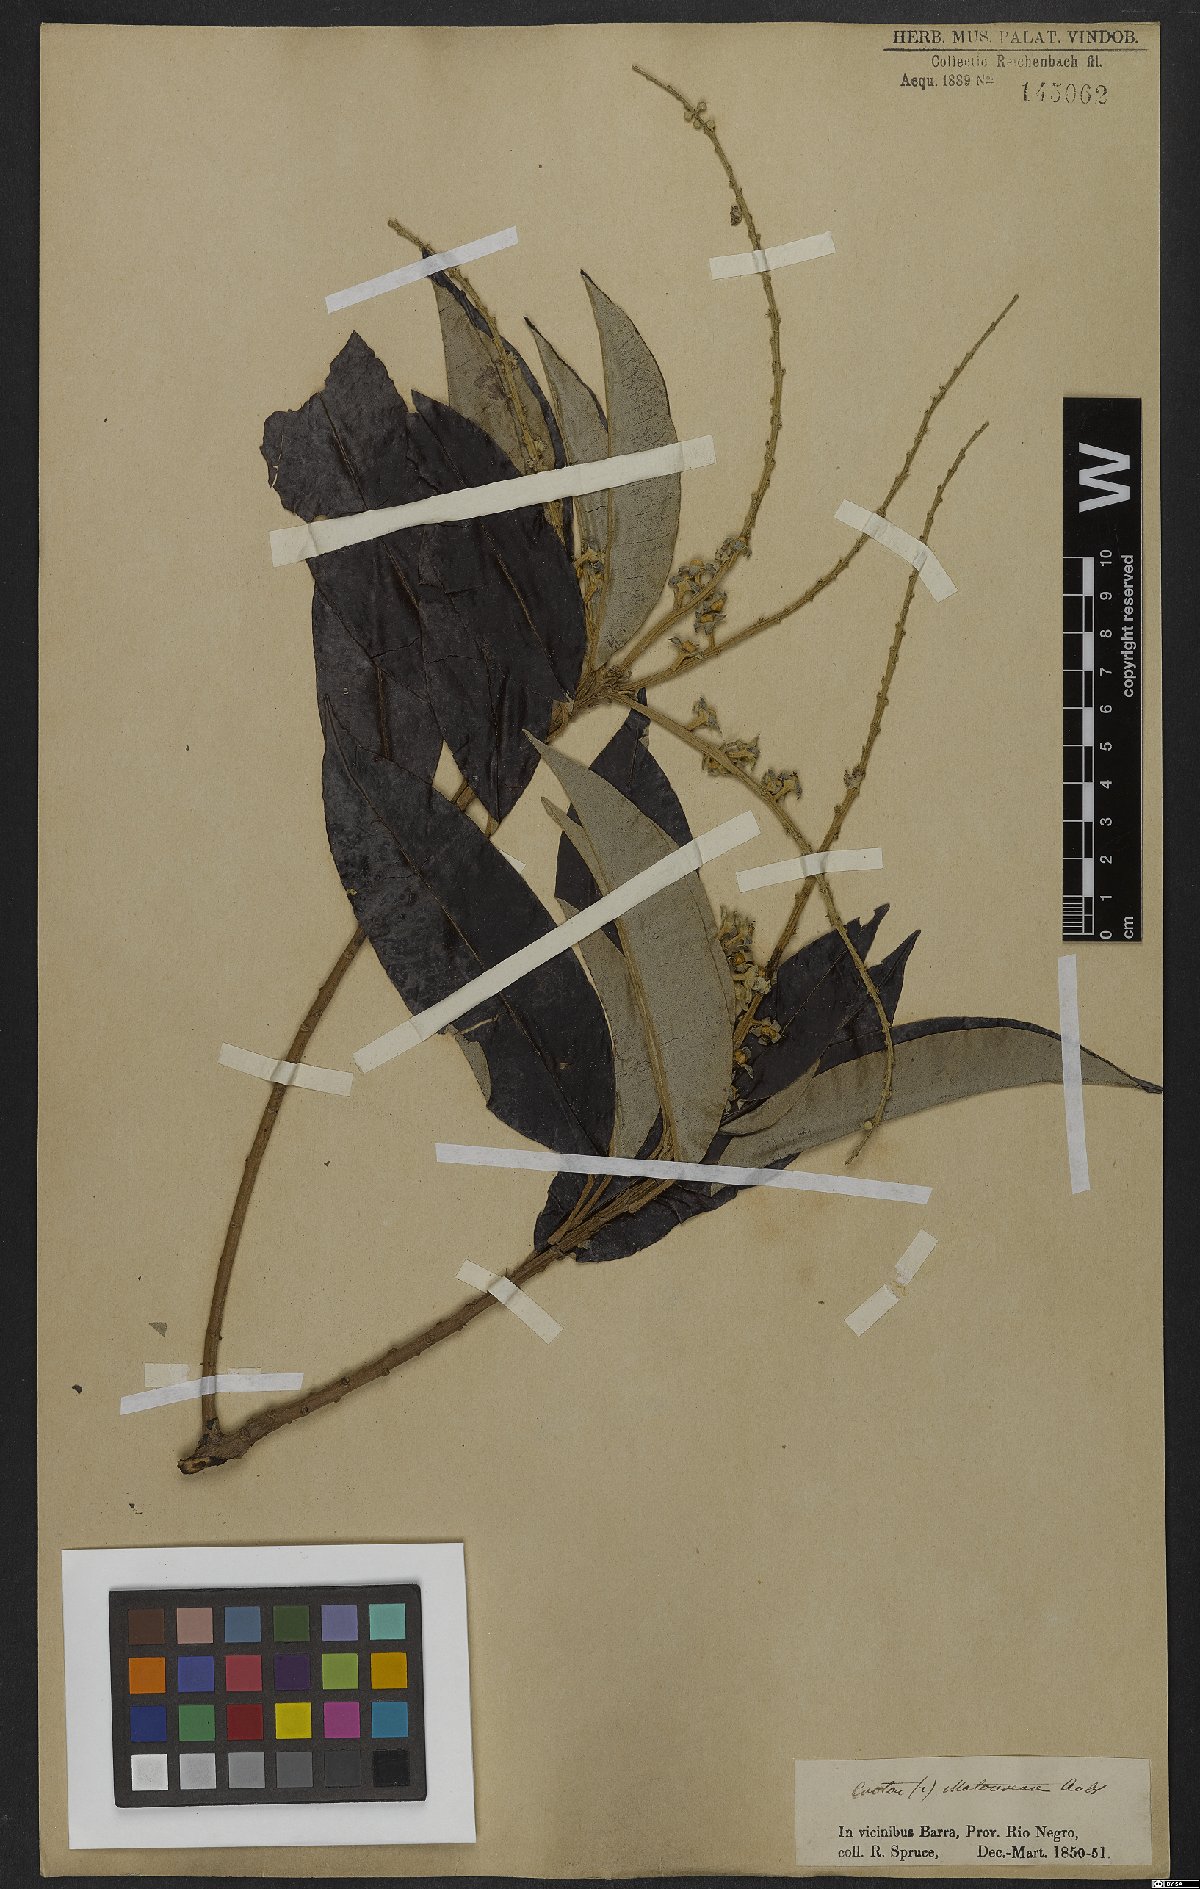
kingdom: Plantae
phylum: Tracheophyta
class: Magnoliopsida
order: Malpighiales
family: Euphorbiaceae
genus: Croton
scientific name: Croton matourensis
